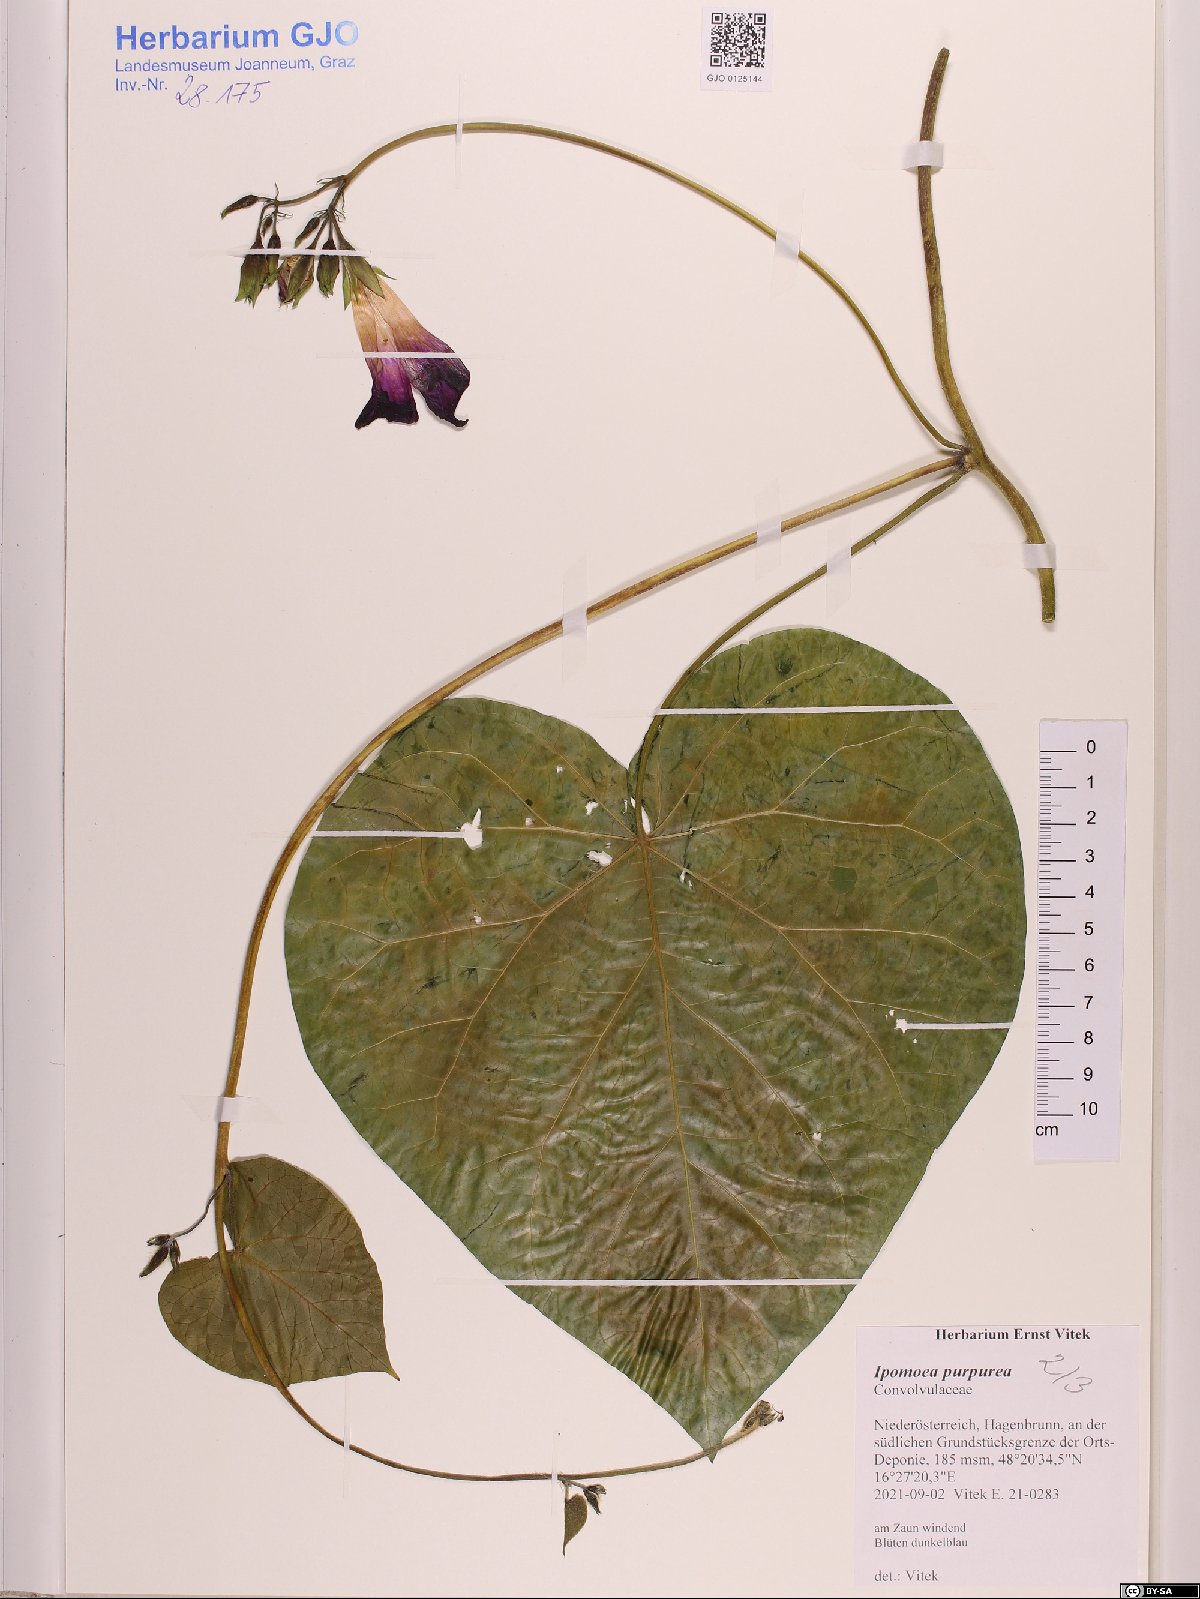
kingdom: Plantae
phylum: Tracheophyta
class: Magnoliopsida
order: Solanales
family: Convolvulaceae
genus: Ipomoea
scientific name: Ipomoea purpurea
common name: Common morning-glory
